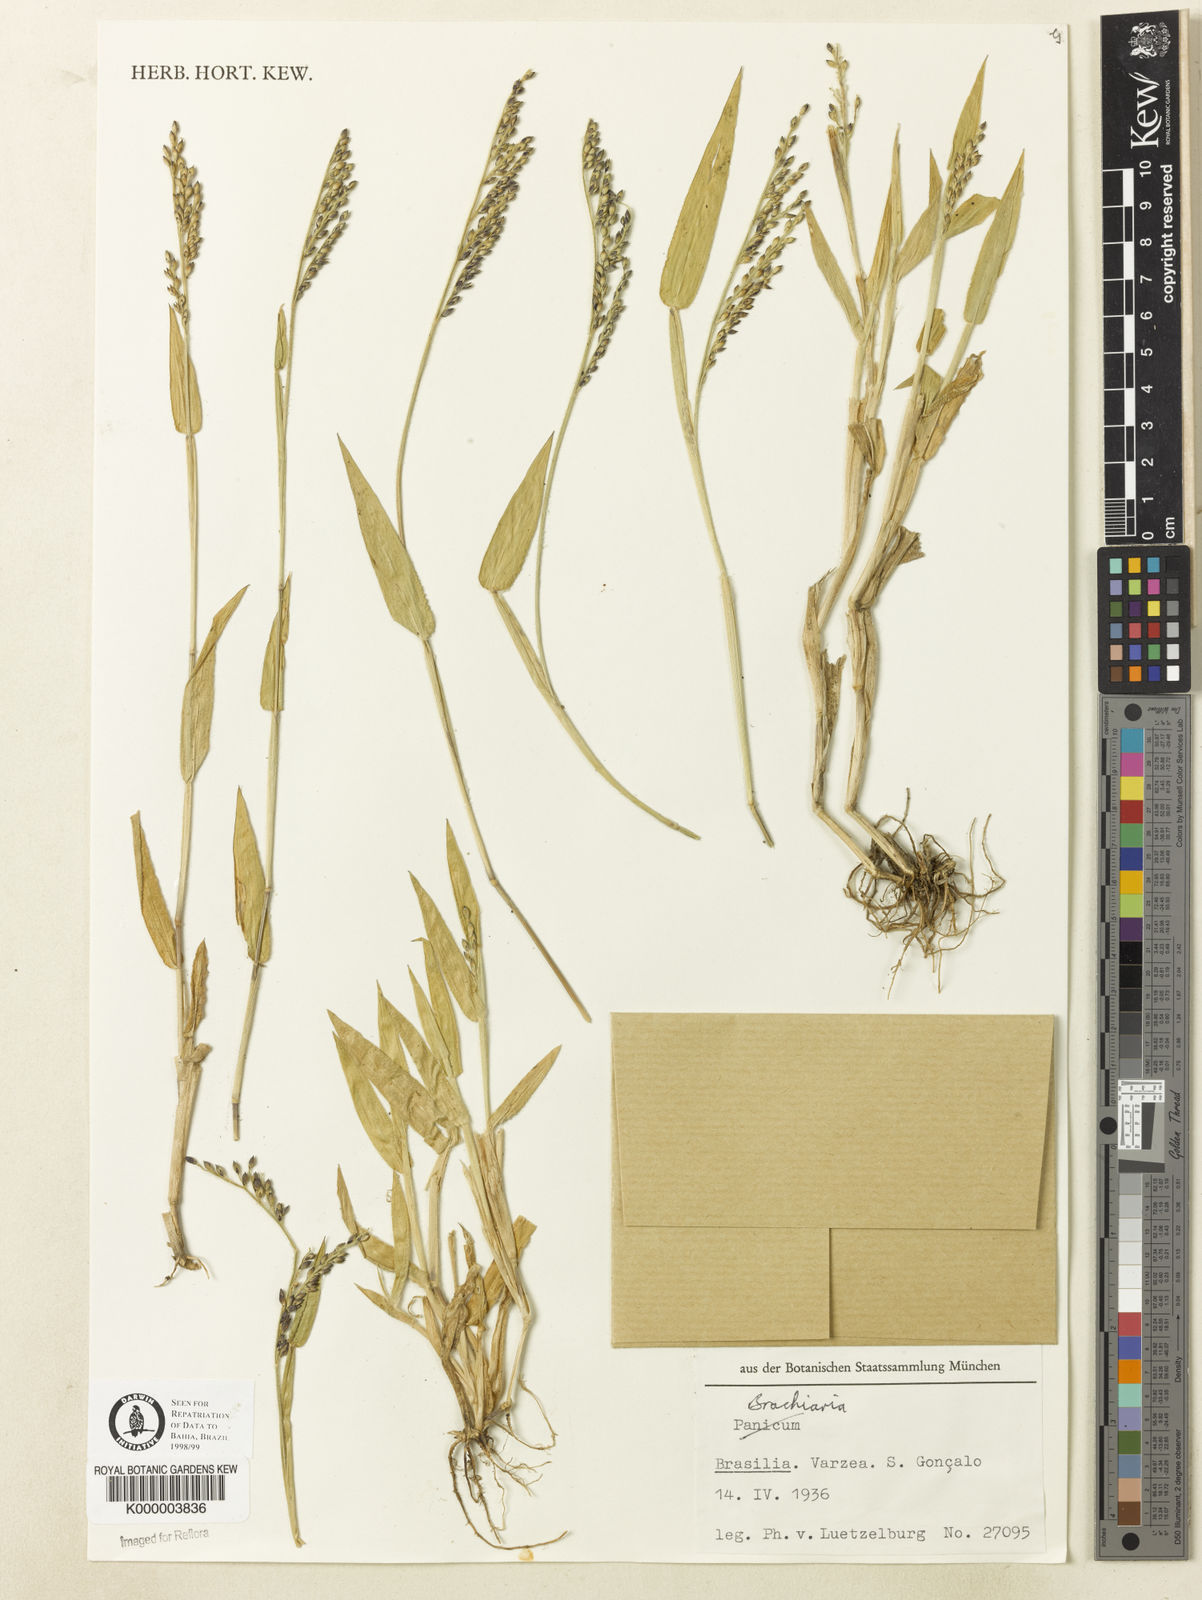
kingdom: Plantae
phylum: Tracheophyta
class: Liliopsida
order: Poales
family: Poaceae
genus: Urochloa
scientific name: Urochloa mollis
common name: Grass
